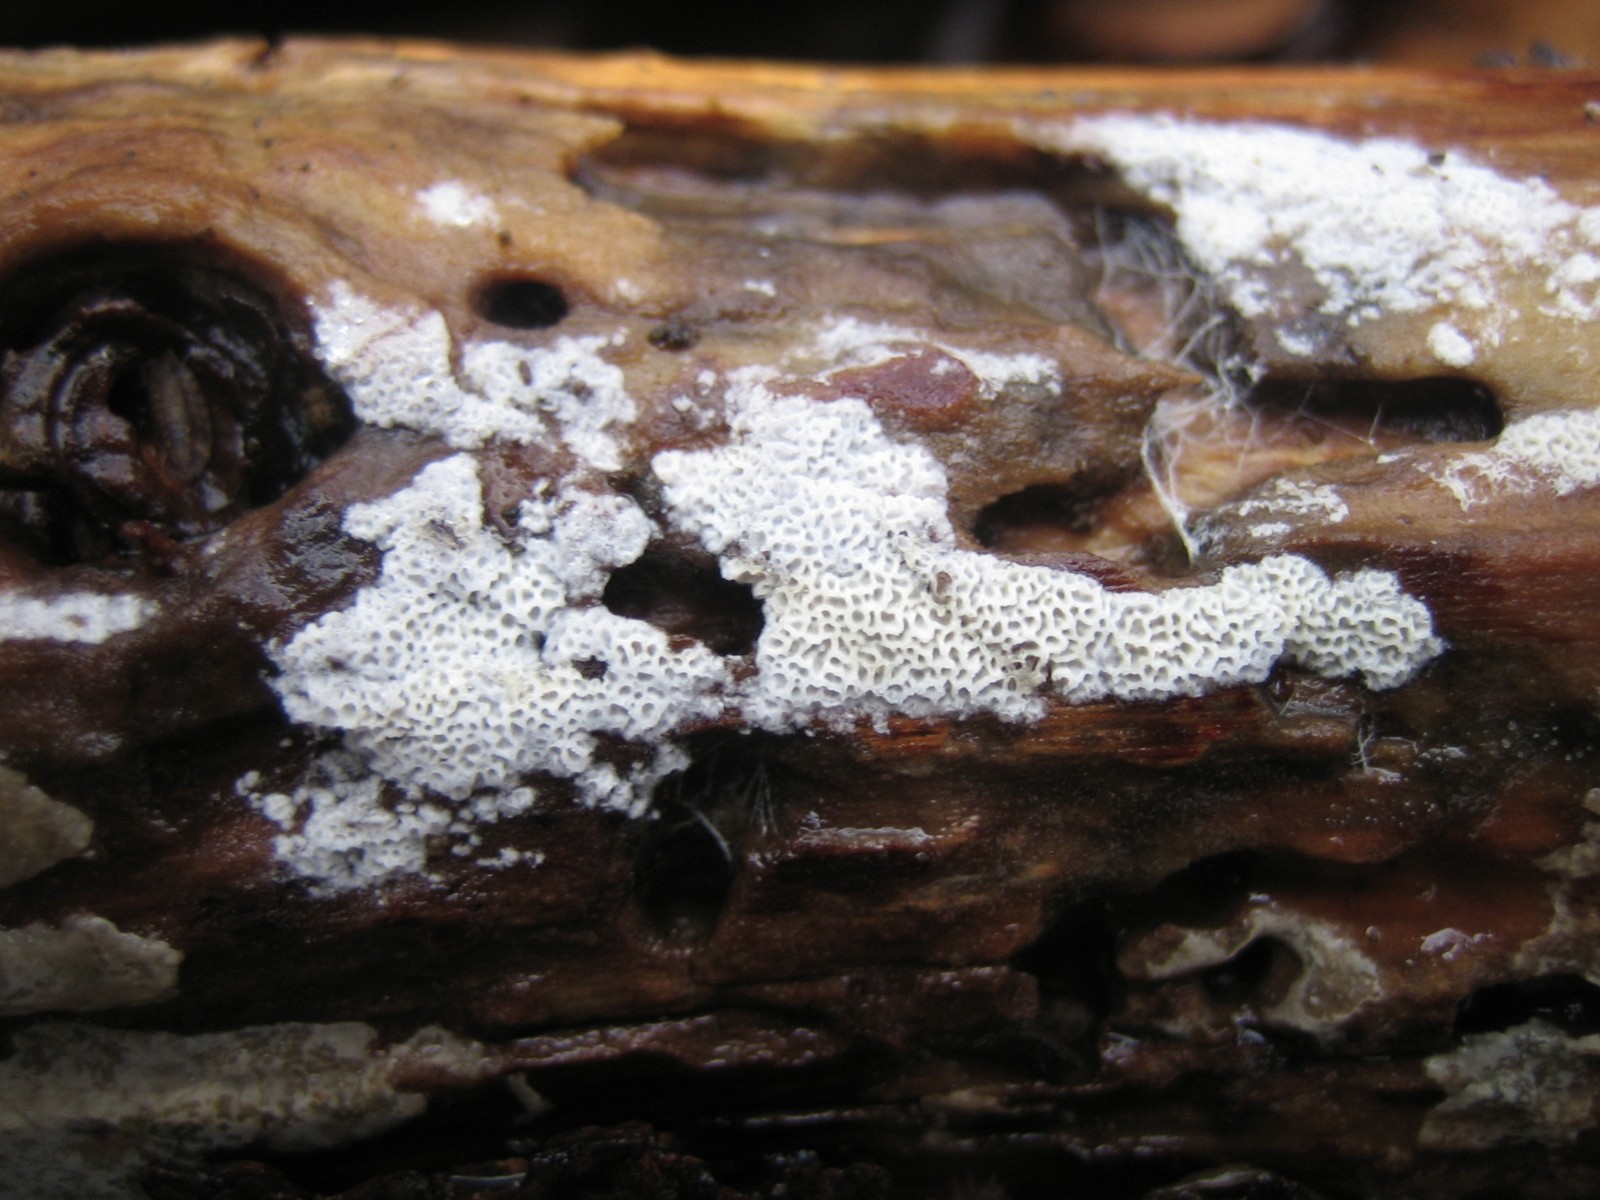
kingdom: Fungi
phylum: Basidiomycota
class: Agaricomycetes
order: Polyporales
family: Irpicaceae
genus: Ceriporia
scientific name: Ceriporia reticulata
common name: netagtig voksporesvamp
